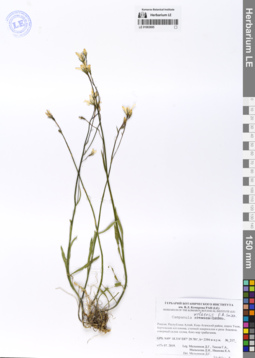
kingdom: Plantae
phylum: Tracheophyta
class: Magnoliopsida
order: Asterales
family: Campanulaceae
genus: Campanula
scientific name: Campanula stevenii
